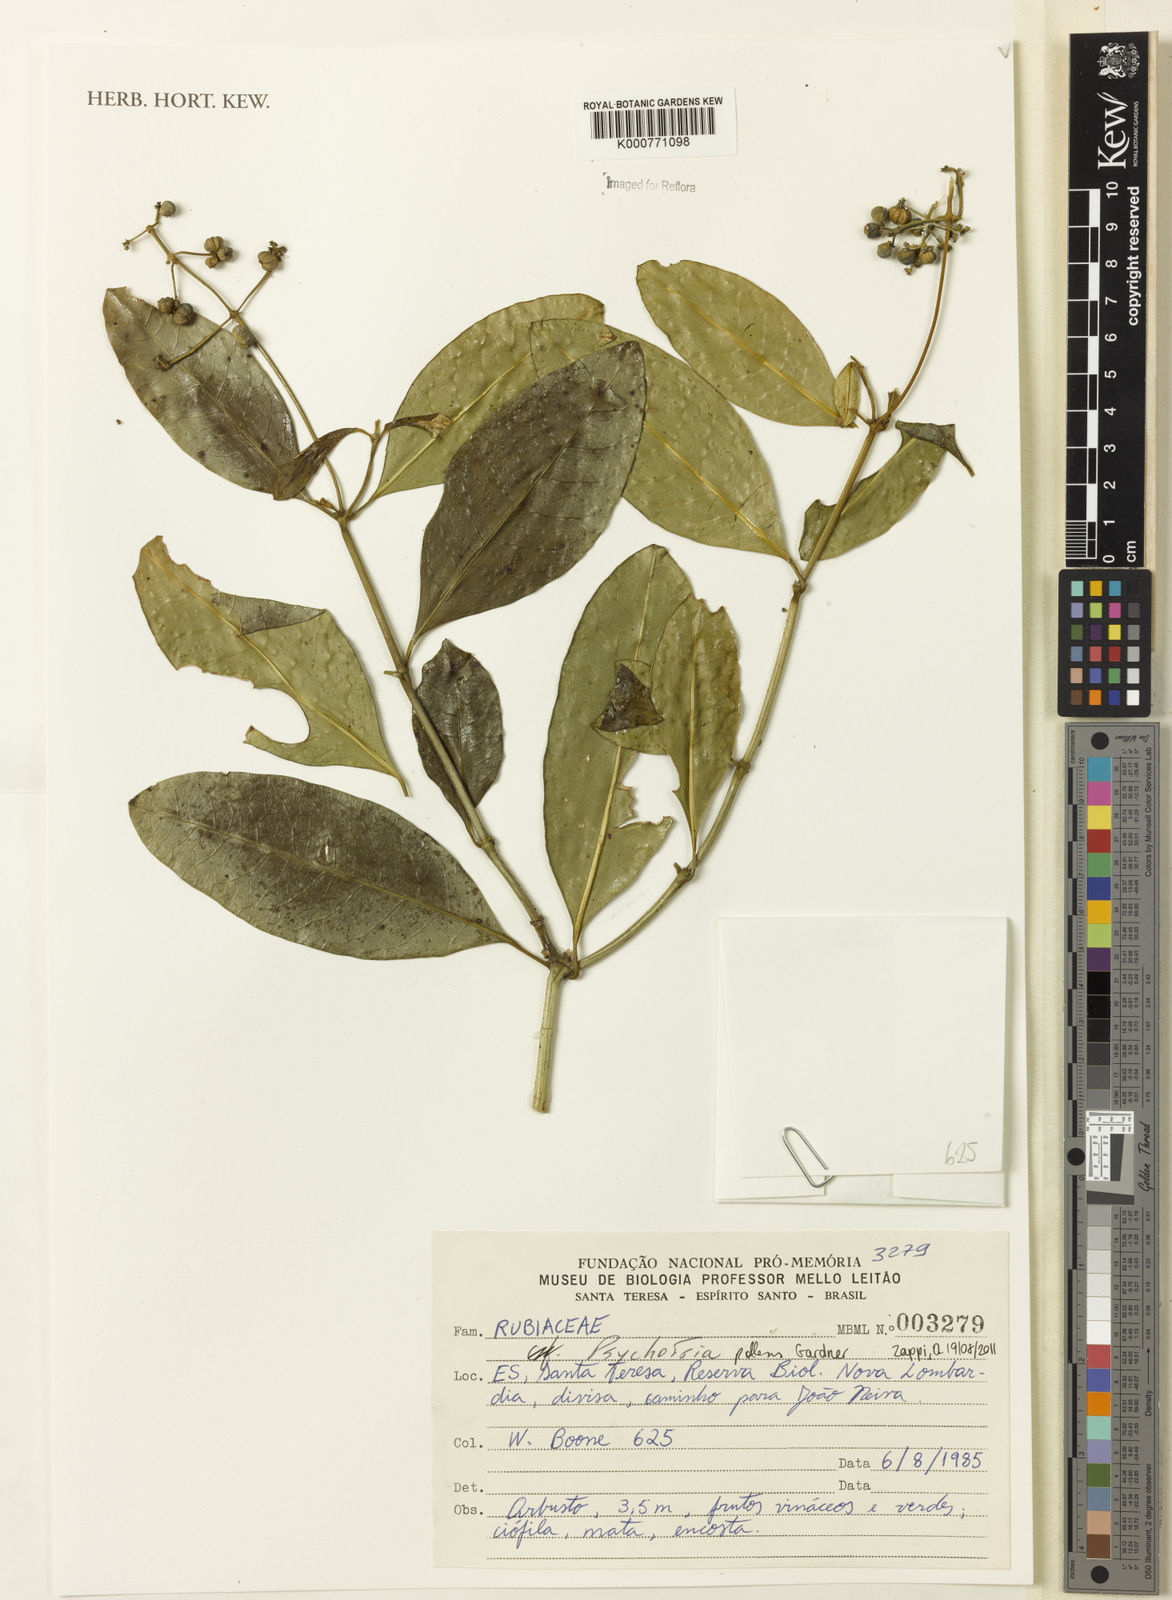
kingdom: Plantae
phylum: Tracheophyta
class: Magnoliopsida
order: Gentianales
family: Rubiaceae
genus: Psychotria
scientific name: Psychotria pallens
